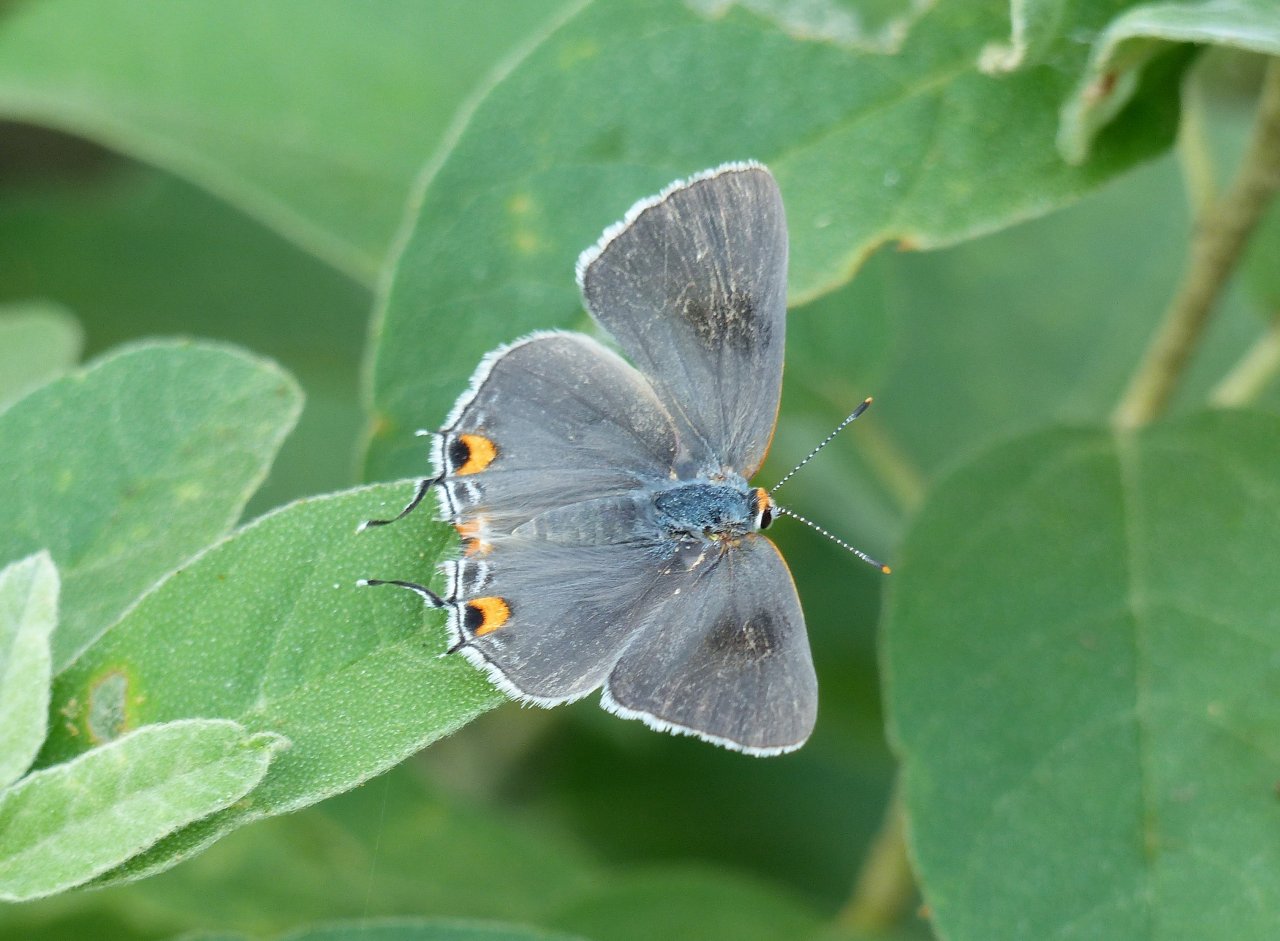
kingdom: Animalia
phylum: Arthropoda
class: Insecta
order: Lepidoptera
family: Lycaenidae
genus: Strymon
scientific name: Strymon melinus
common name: Gray Hairstreak
